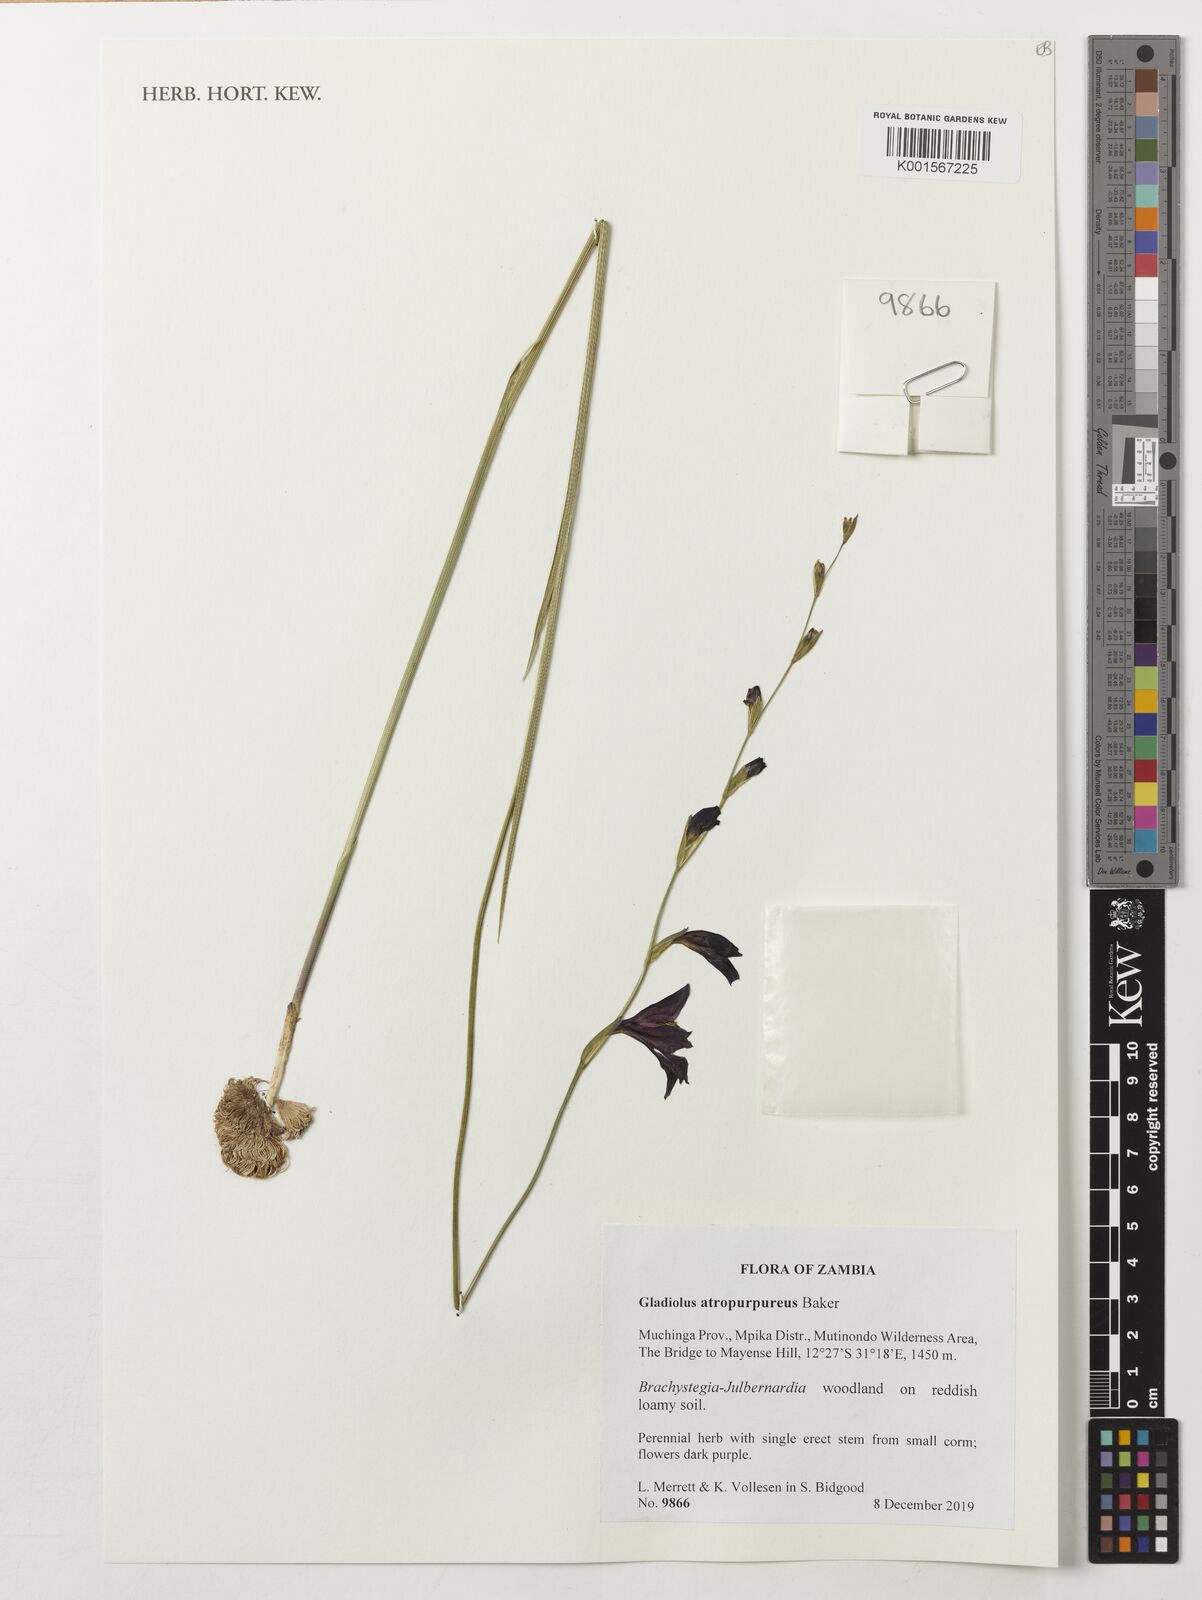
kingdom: Plantae
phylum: Tracheophyta
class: Liliopsida
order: Asparagales
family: Iridaceae
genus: Gladiolus
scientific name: Gladiolus atropurpureus
